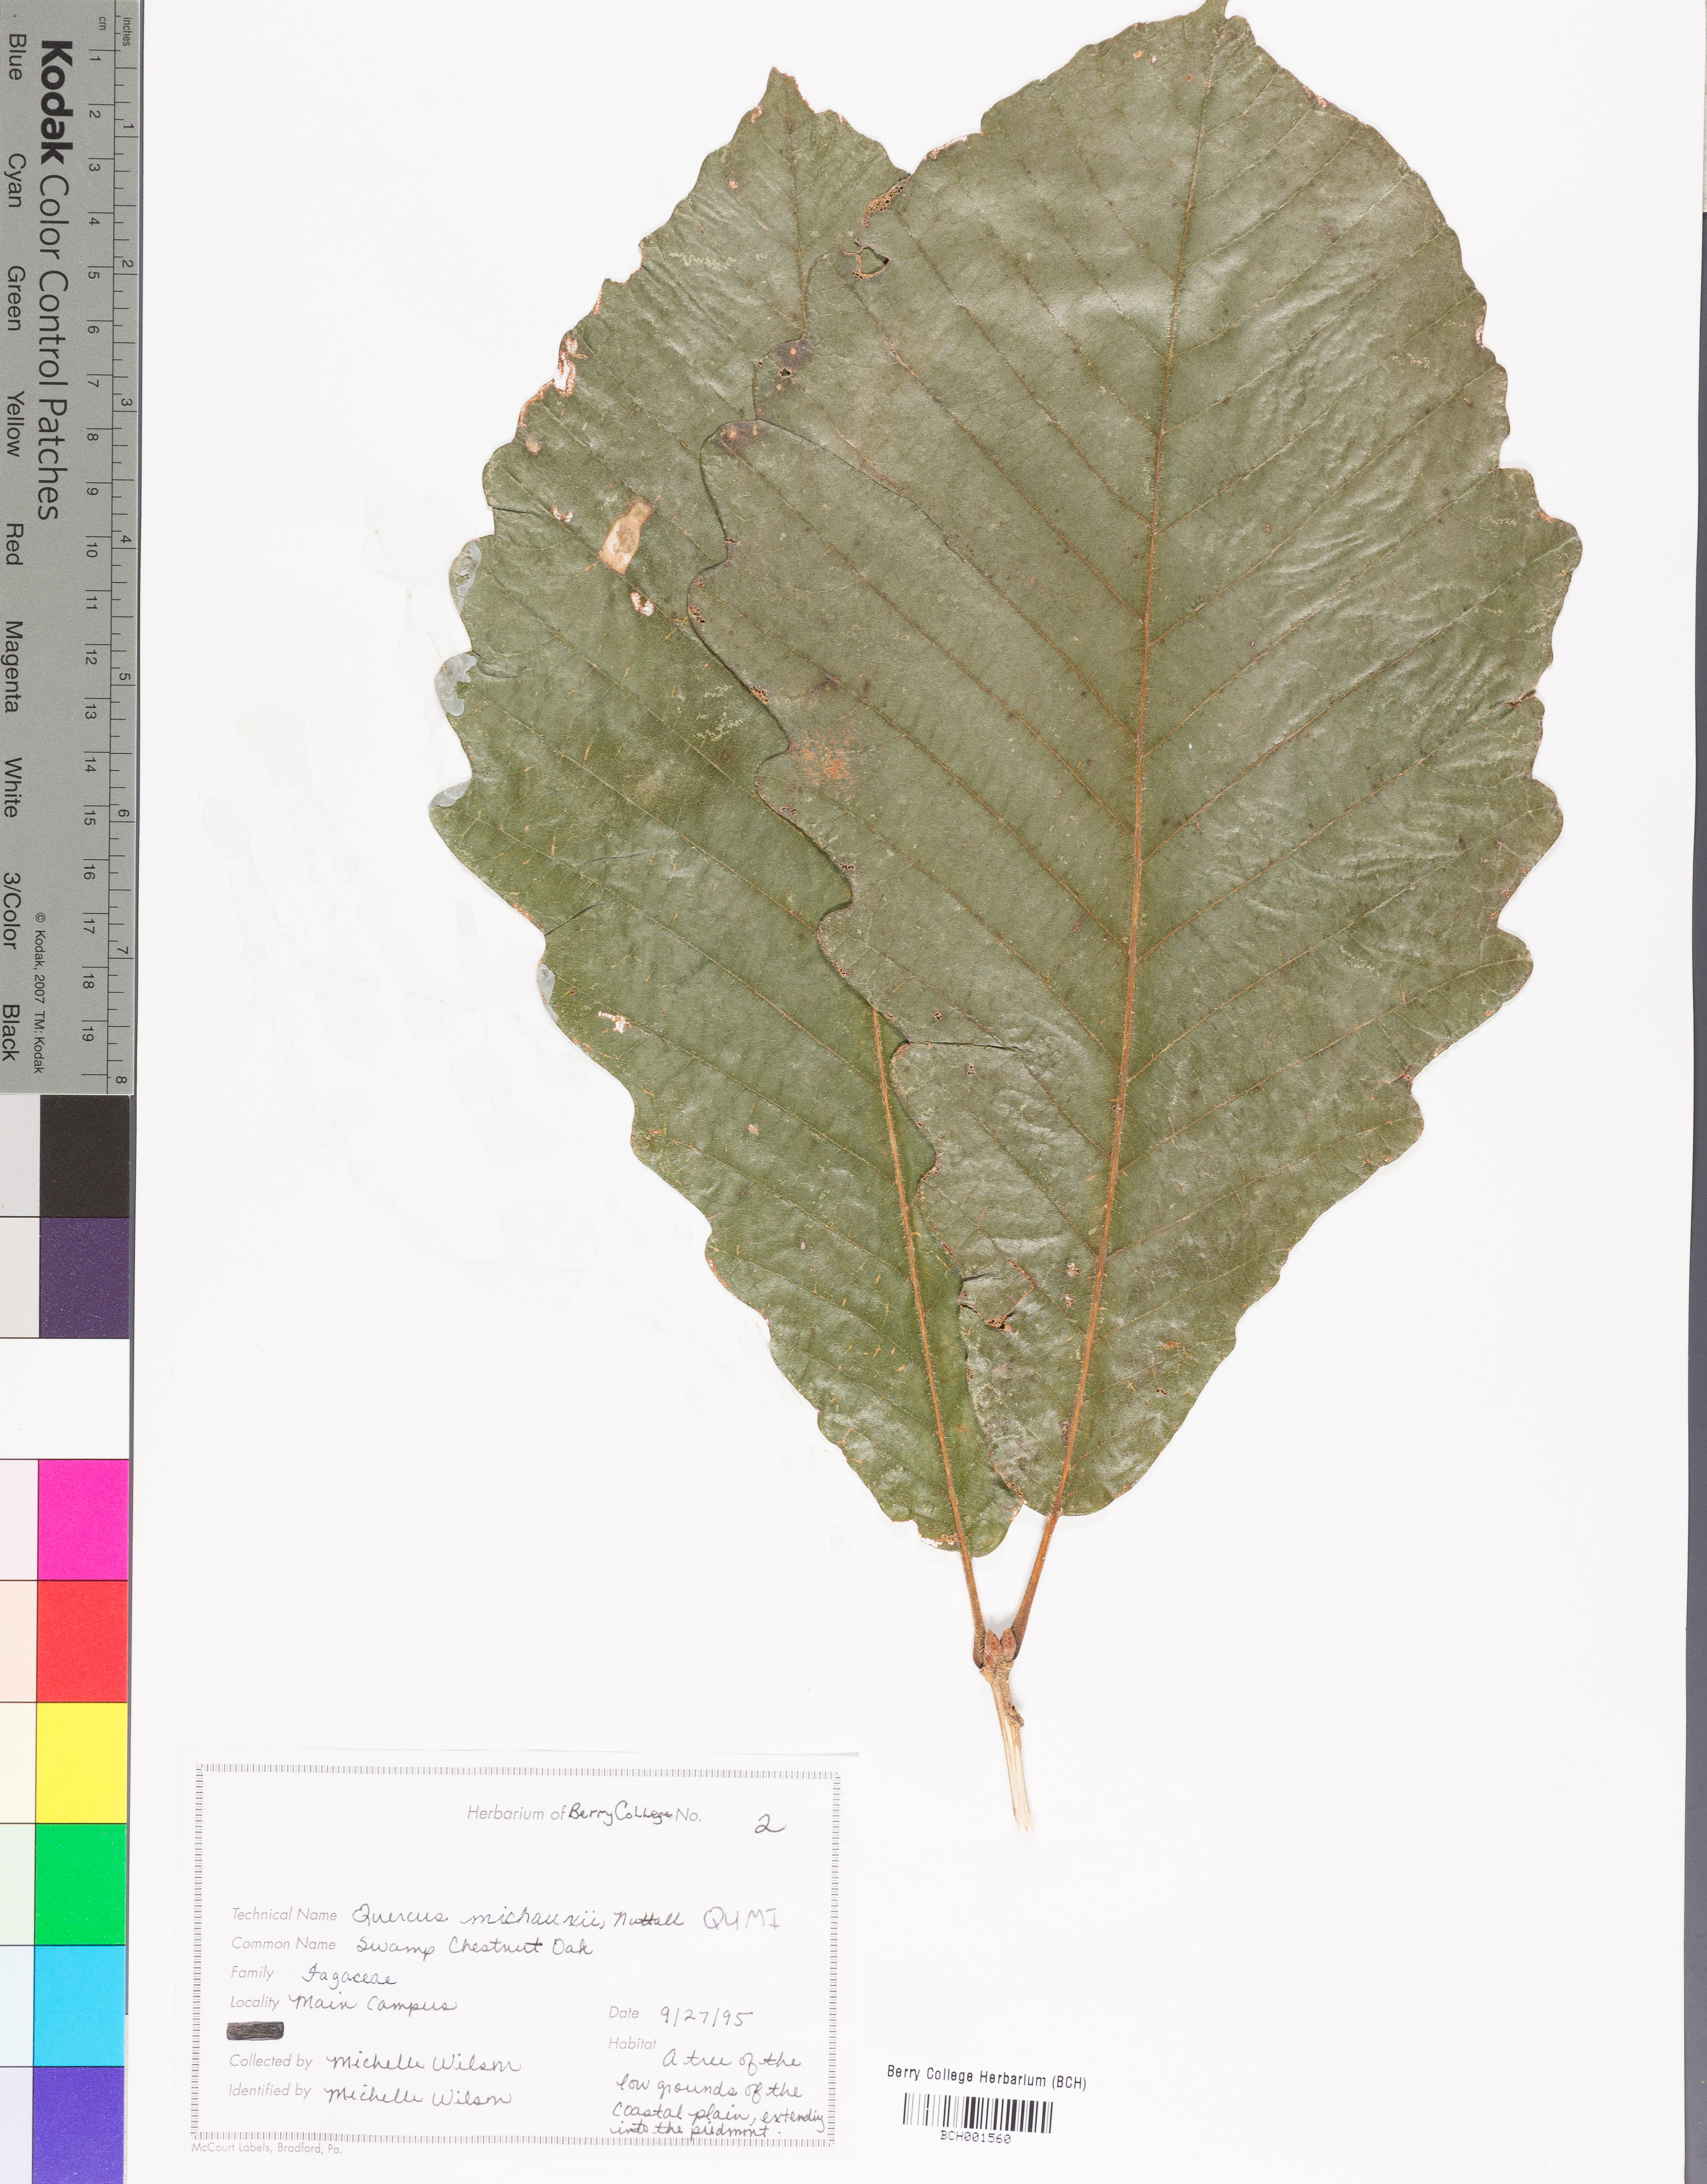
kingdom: Plantae
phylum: Tracheophyta
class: Magnoliopsida
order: Fagales
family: Fagaceae
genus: Quercus
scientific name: Quercus michauxii
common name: Swamp chestnut oak
